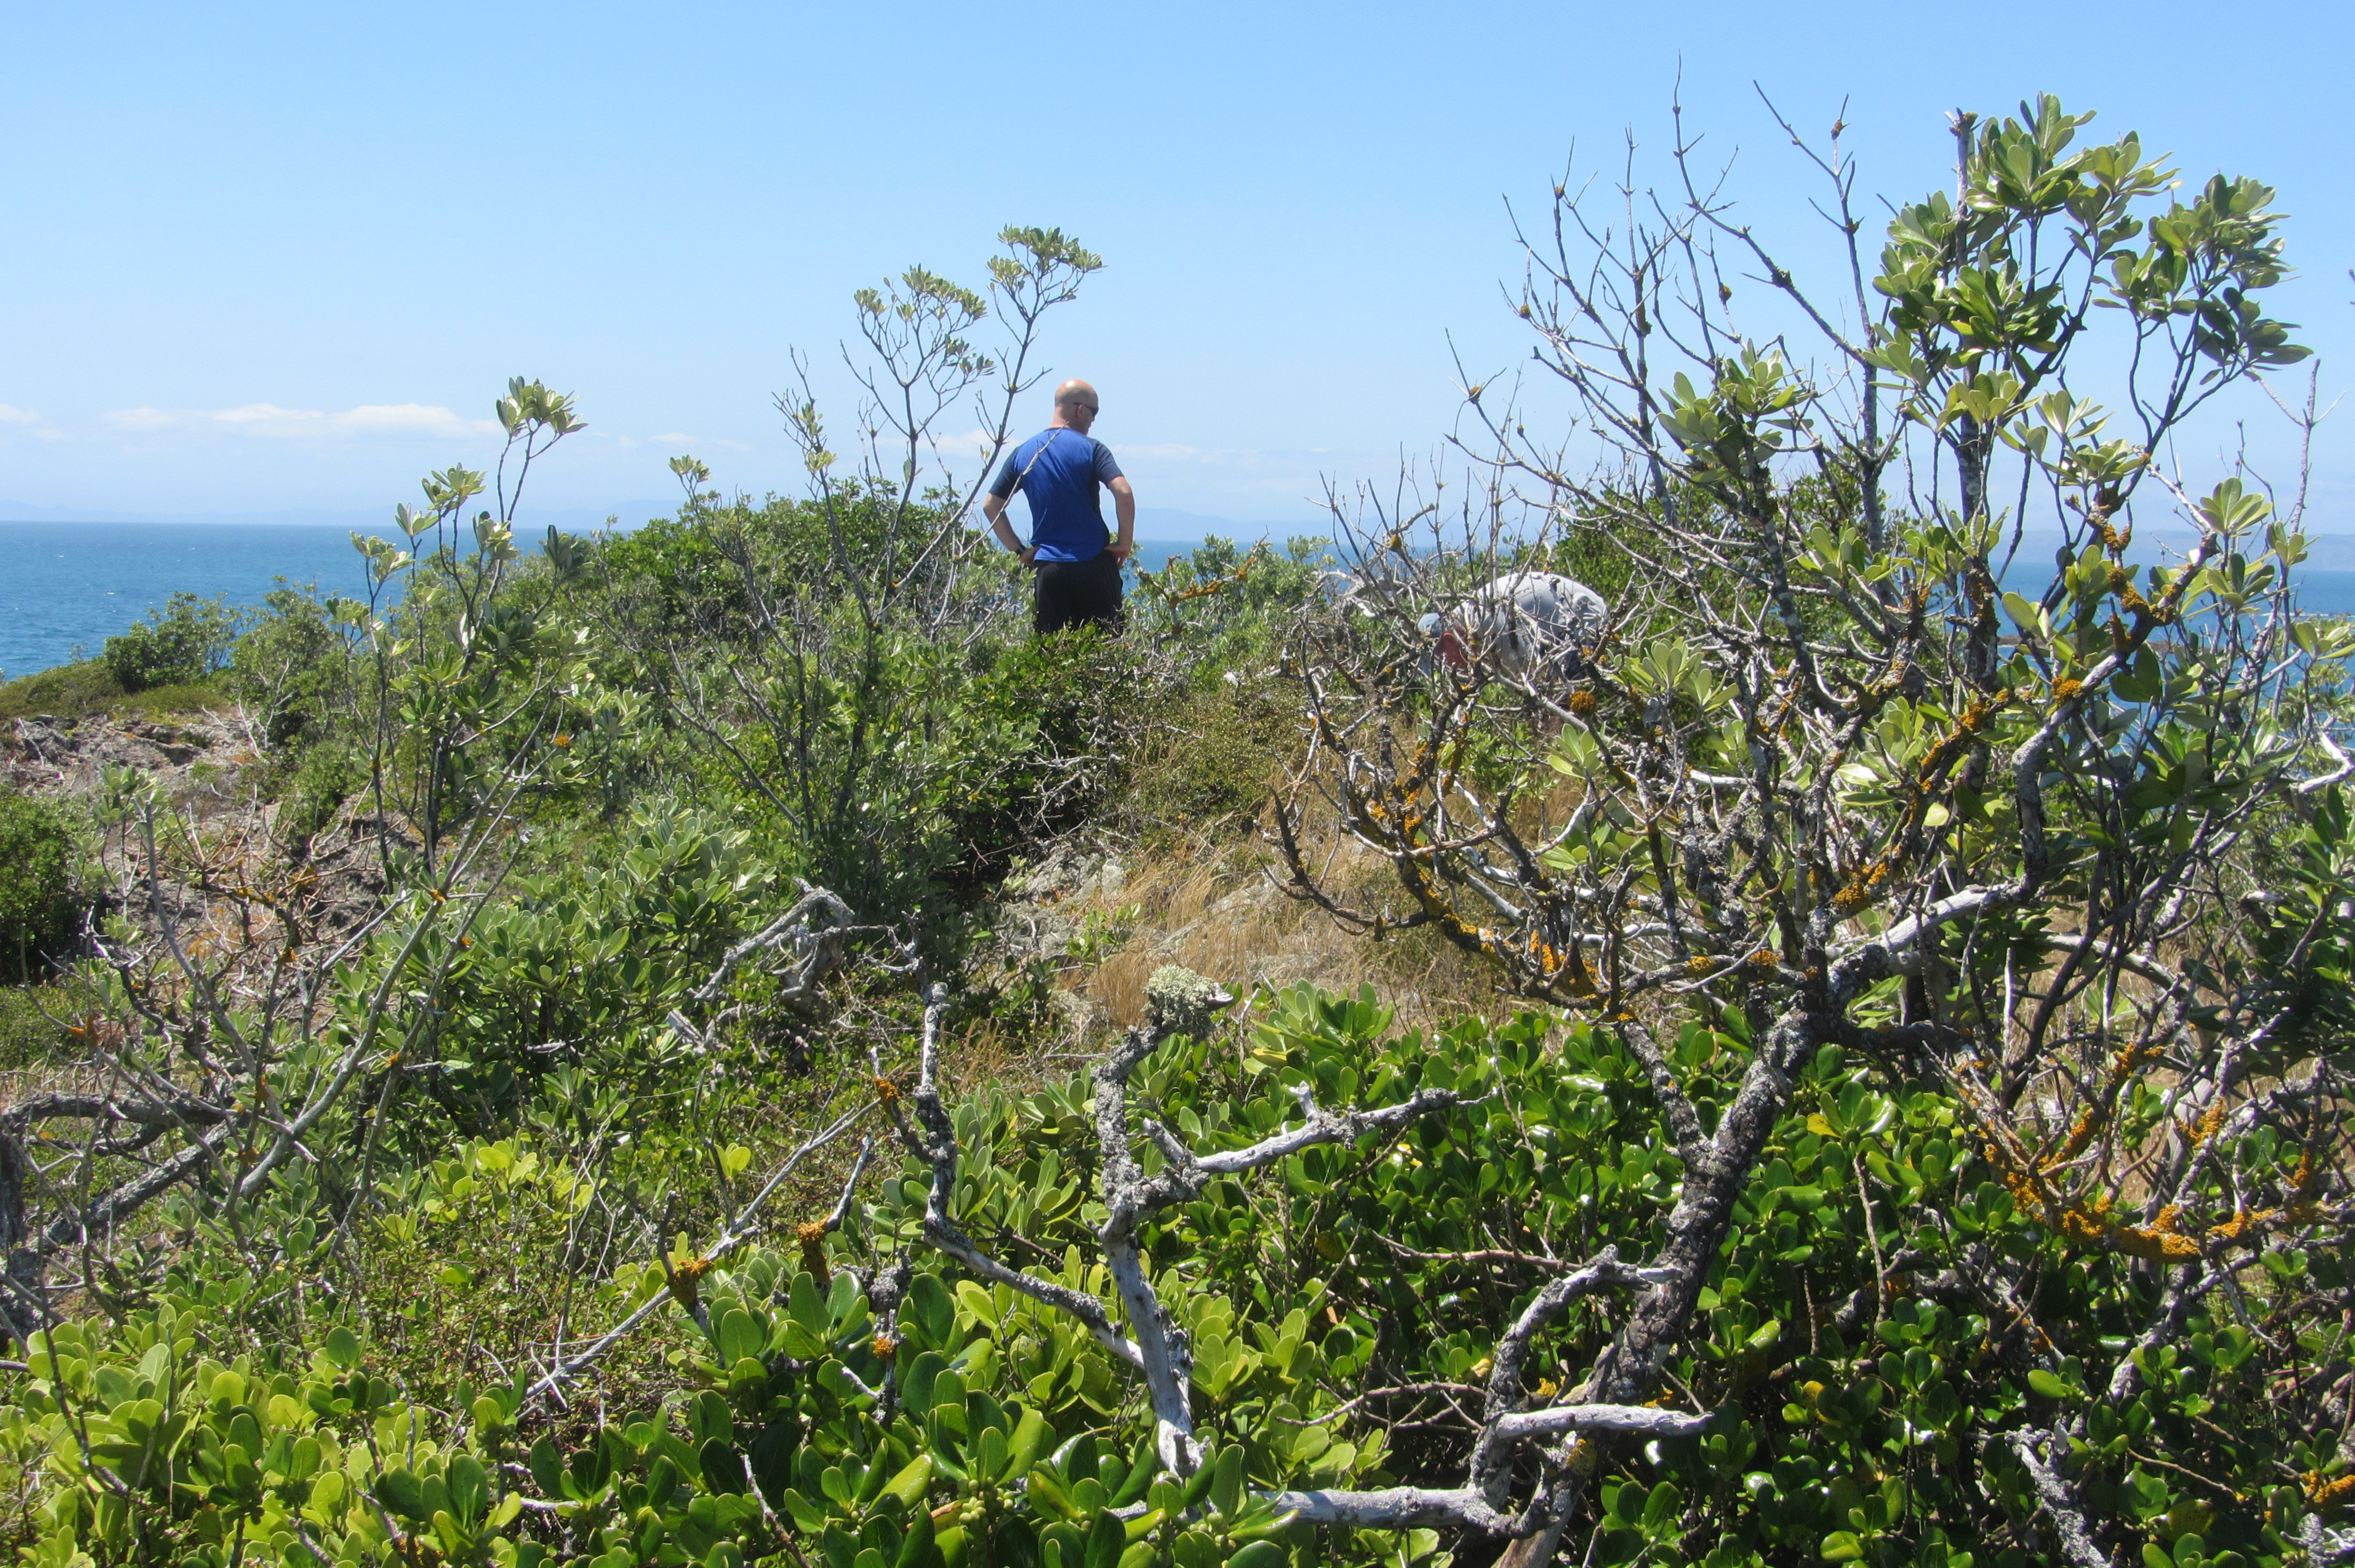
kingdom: Plantae
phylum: Tracheophyta
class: Magnoliopsida
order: Caryophyllales
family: Amaranthaceae
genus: Chenopodium
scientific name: Chenopodium trigonon
